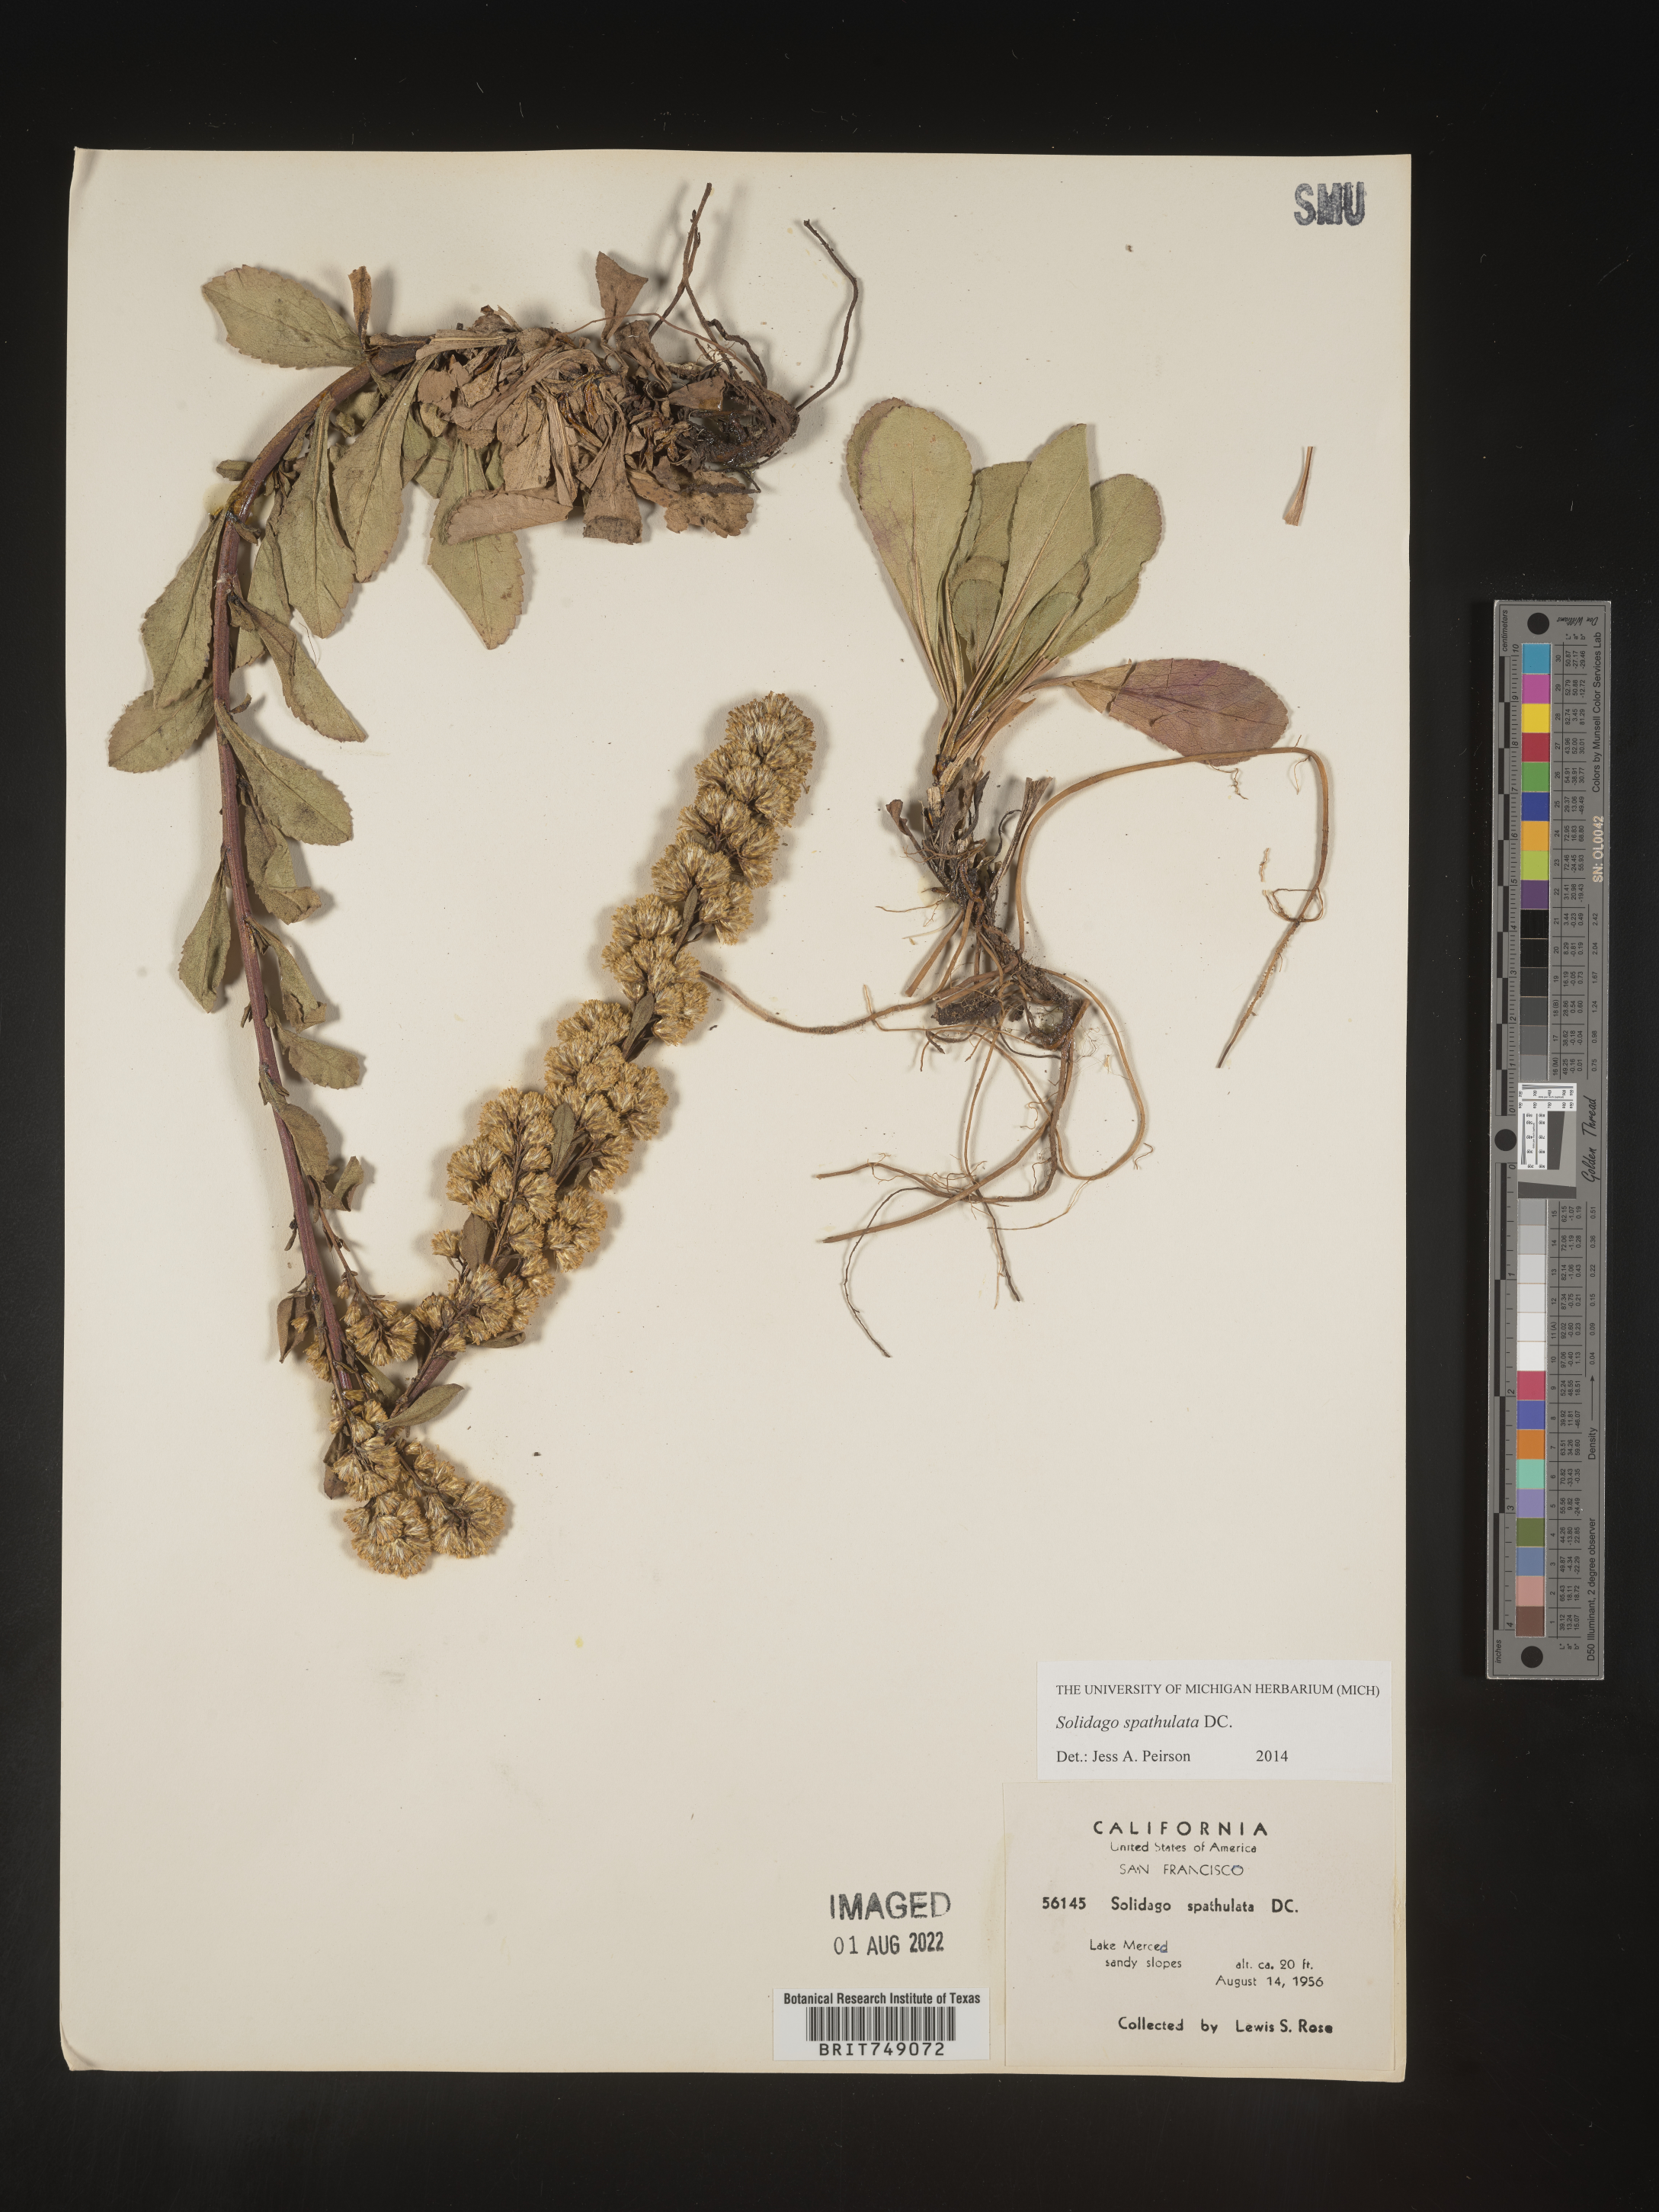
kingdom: Plantae
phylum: Tracheophyta
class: Magnoliopsida
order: Asterales
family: Asteraceae
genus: Solidago
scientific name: Solidago spathulata
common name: Coast goldenrod
